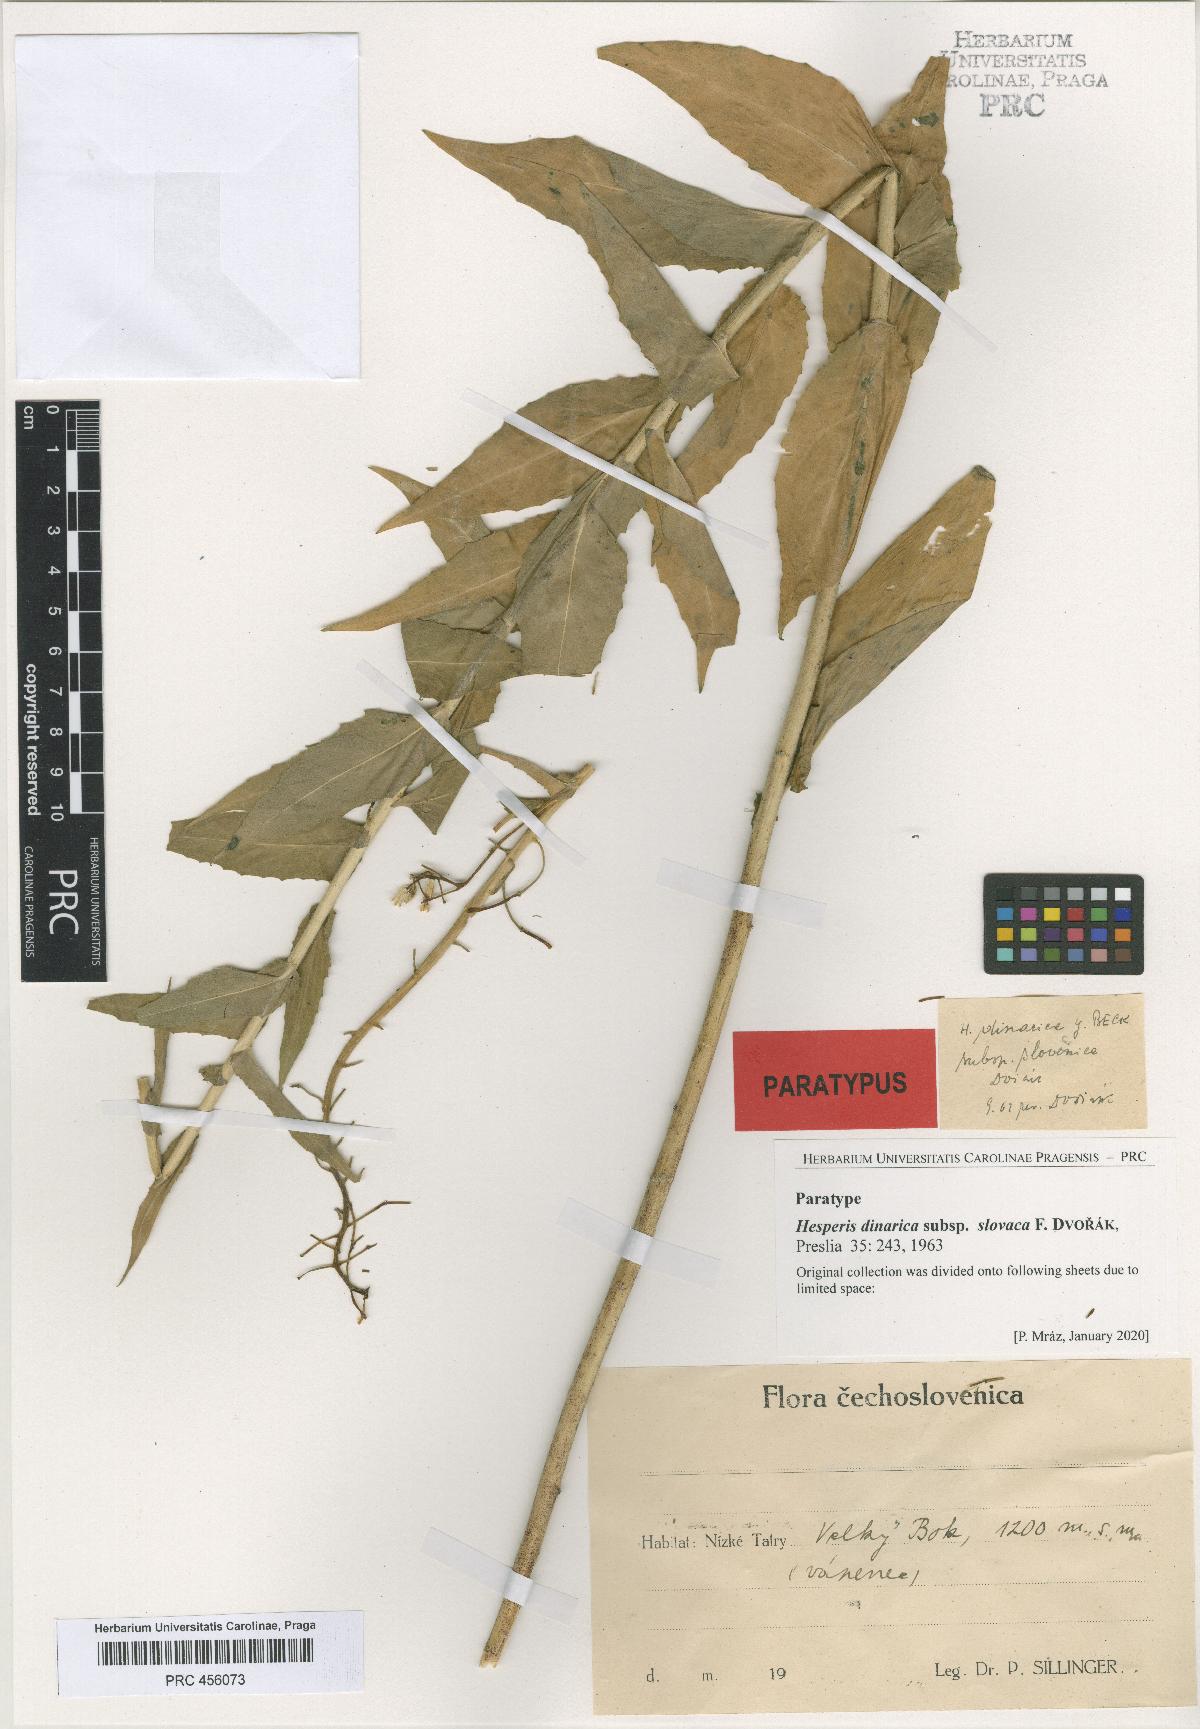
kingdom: Plantae
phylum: Tracheophyta
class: Magnoliopsida
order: Brassicales
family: Brassicaceae
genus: Hesperis
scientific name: Hesperis dinarica
